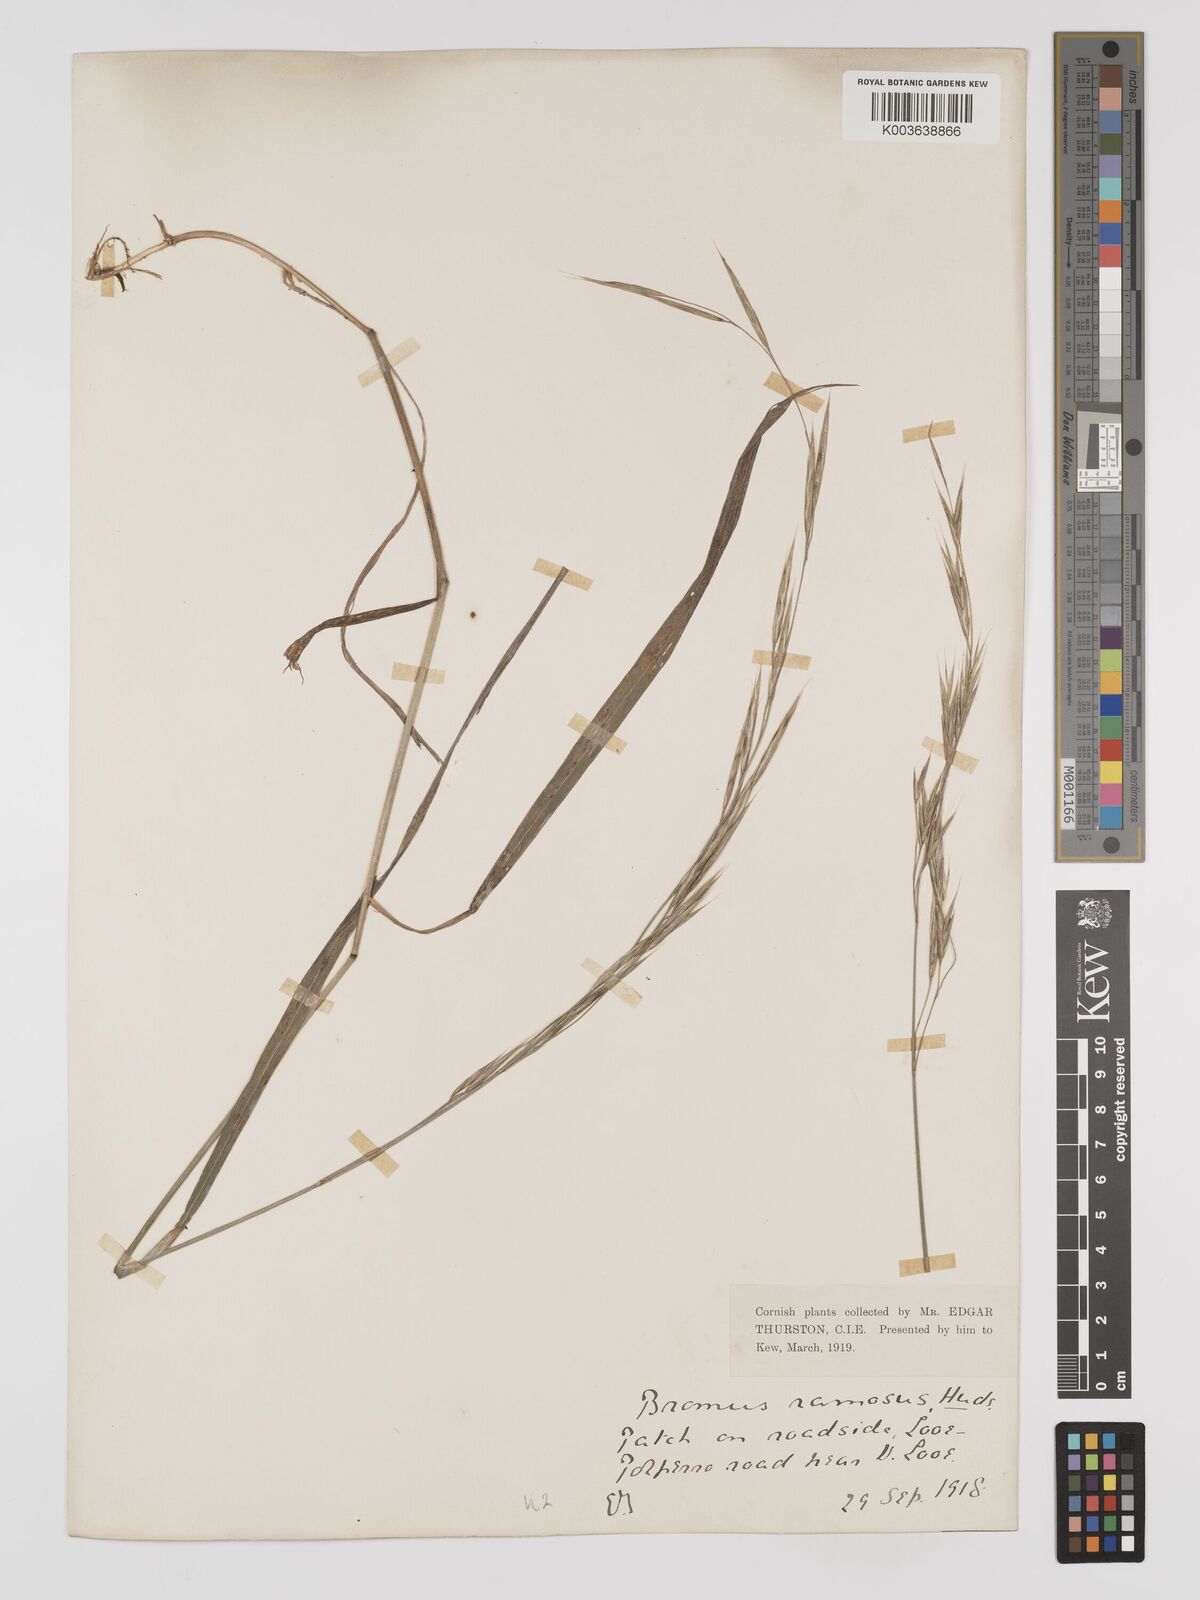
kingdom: Plantae
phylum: Tracheophyta
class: Liliopsida
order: Poales
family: Poaceae
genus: Brachypodium
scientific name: Brachypodium retusum
